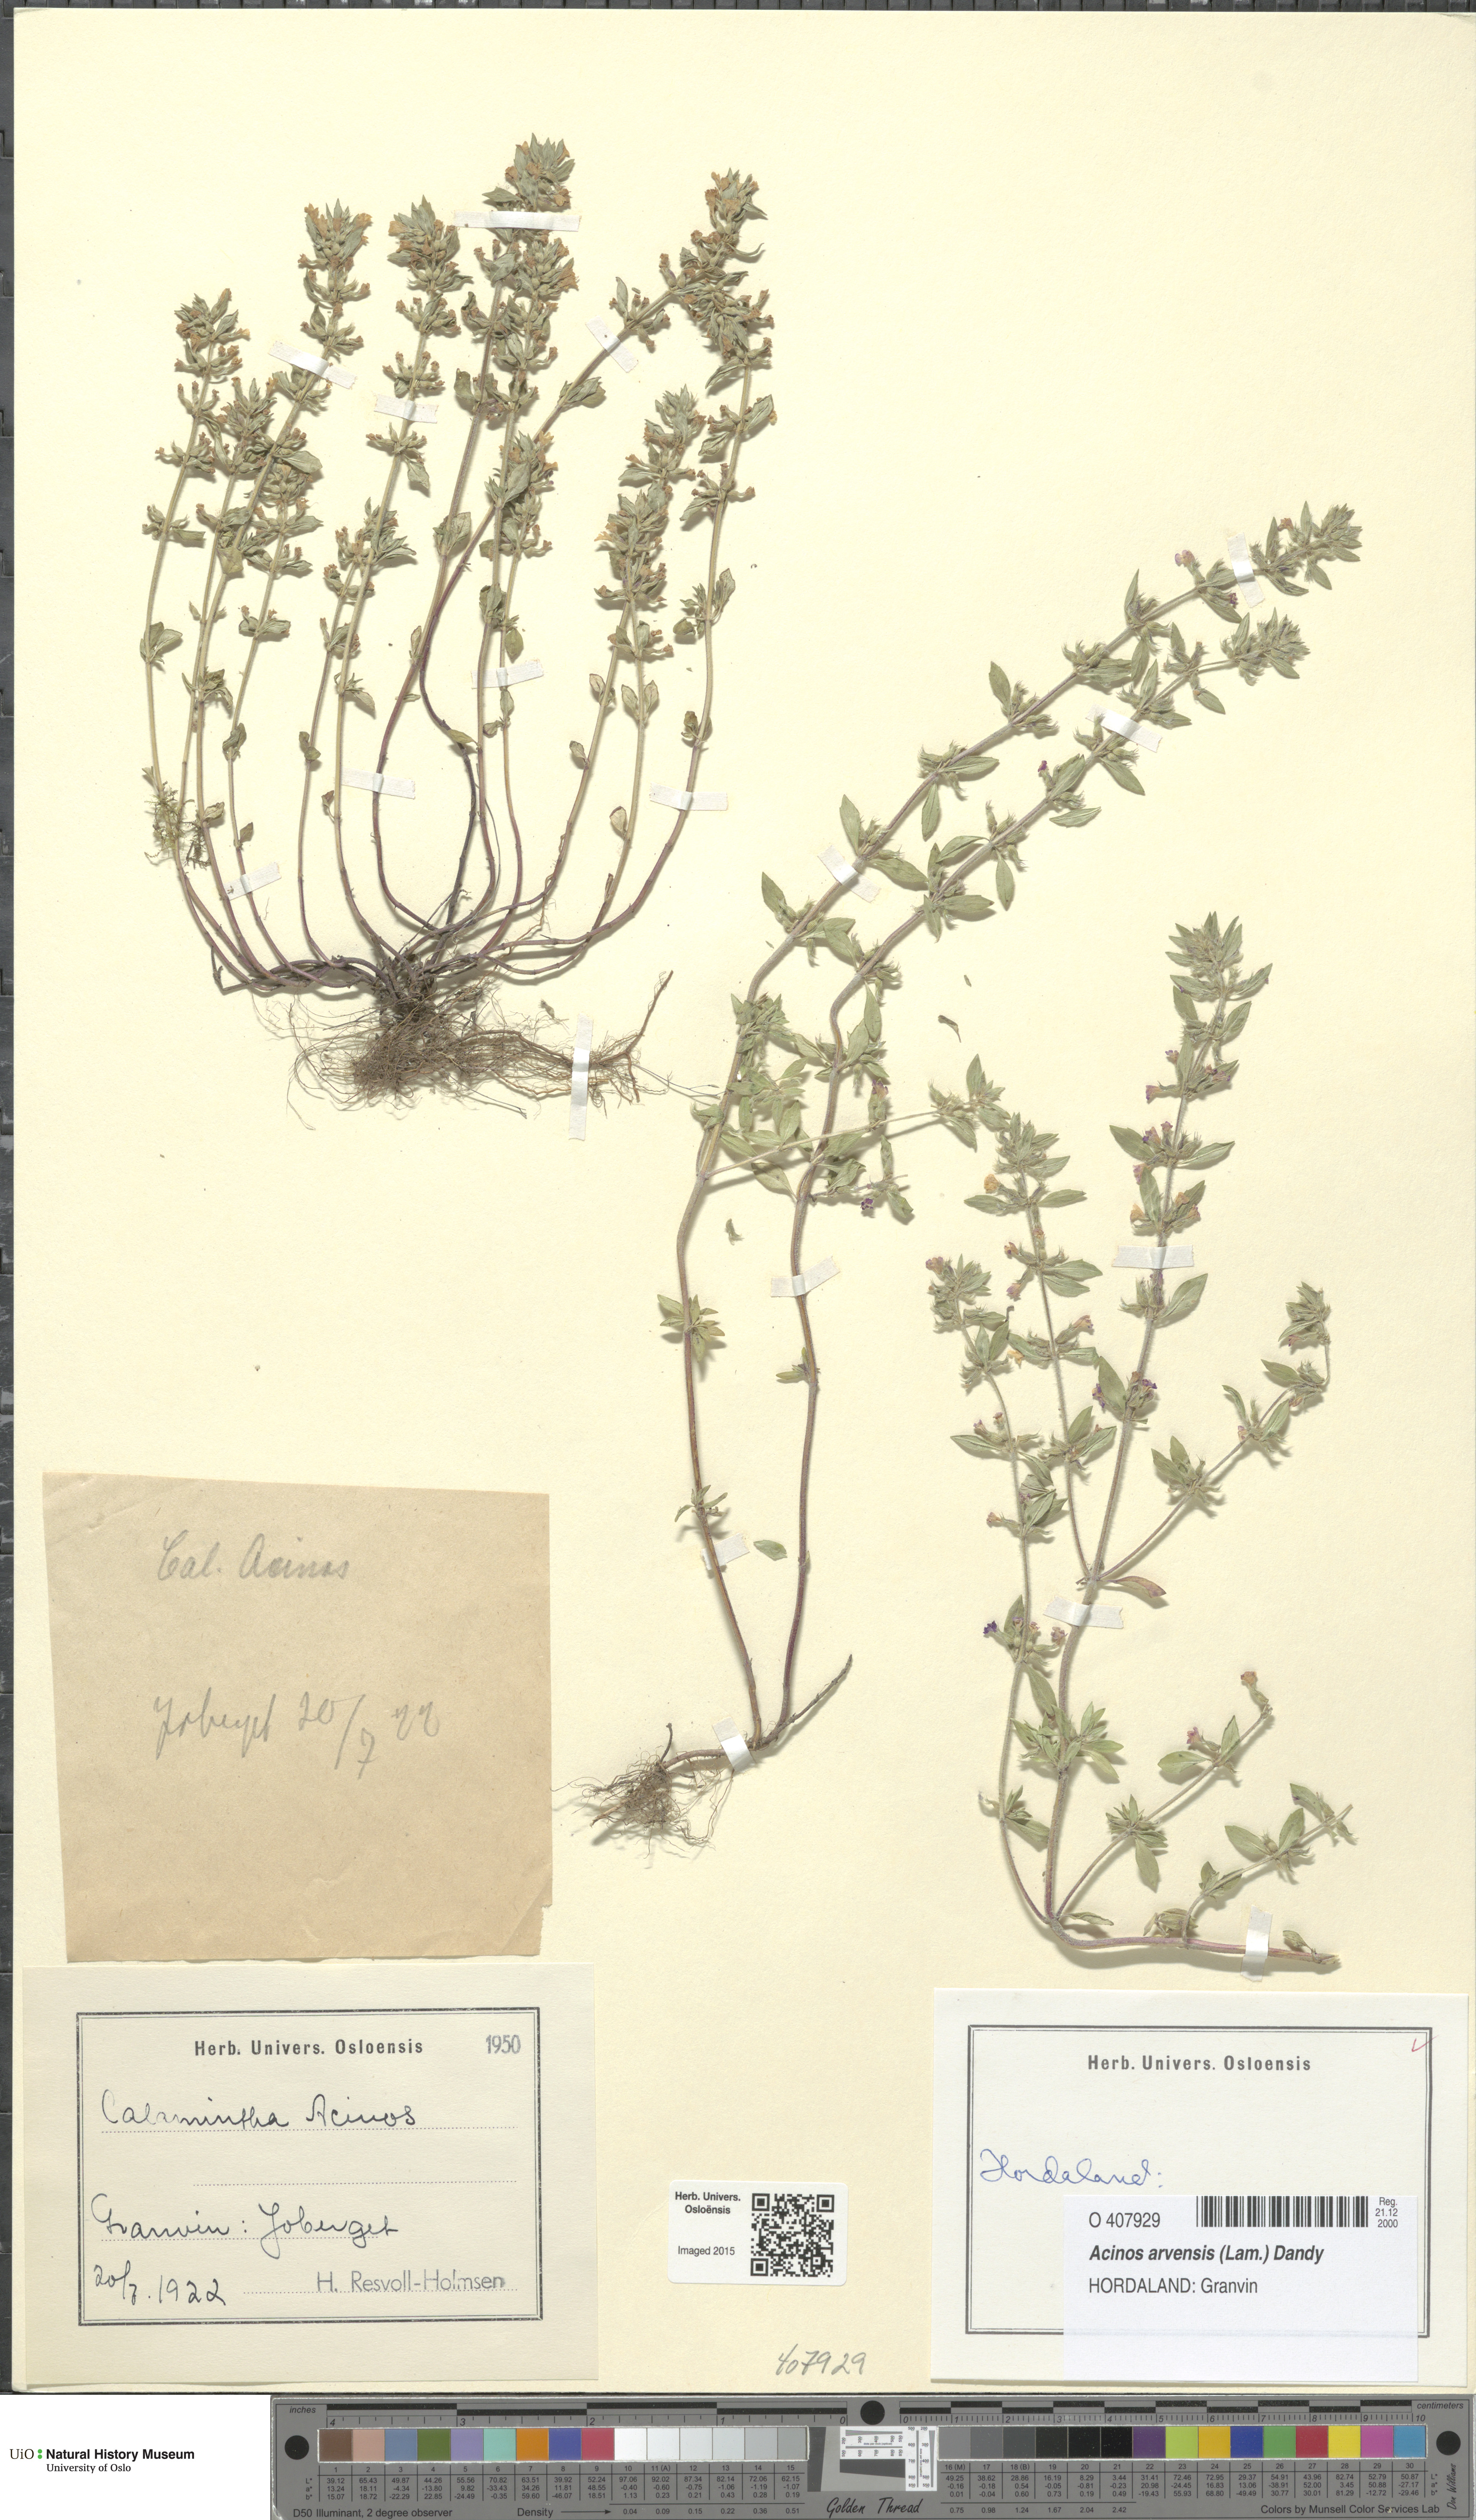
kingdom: Plantae
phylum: Tracheophyta
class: Magnoliopsida
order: Lamiales
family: Lamiaceae
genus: Clinopodium
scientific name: Clinopodium acinos
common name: Basil thyme
